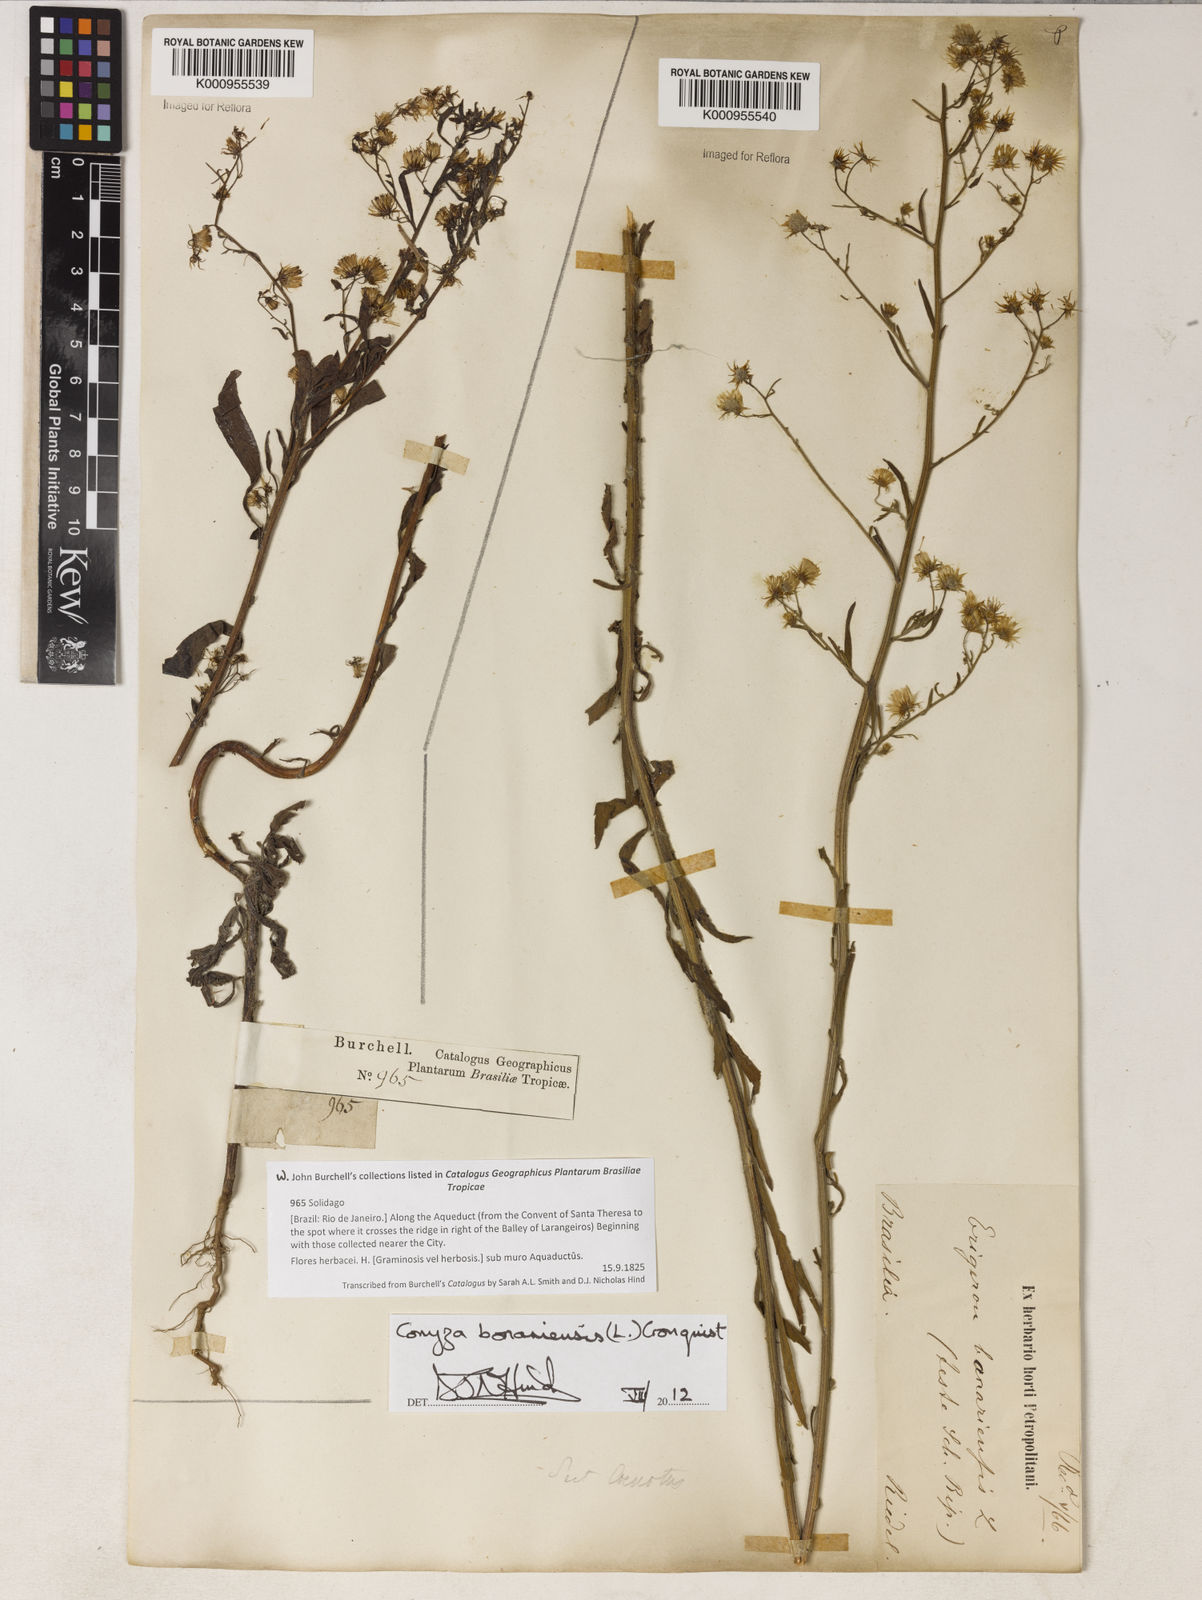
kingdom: Plantae
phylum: Tracheophyta
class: Magnoliopsida
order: Asterales
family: Asteraceae
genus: Erigeron
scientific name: Erigeron bonariensis
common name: Argentine fleabane
